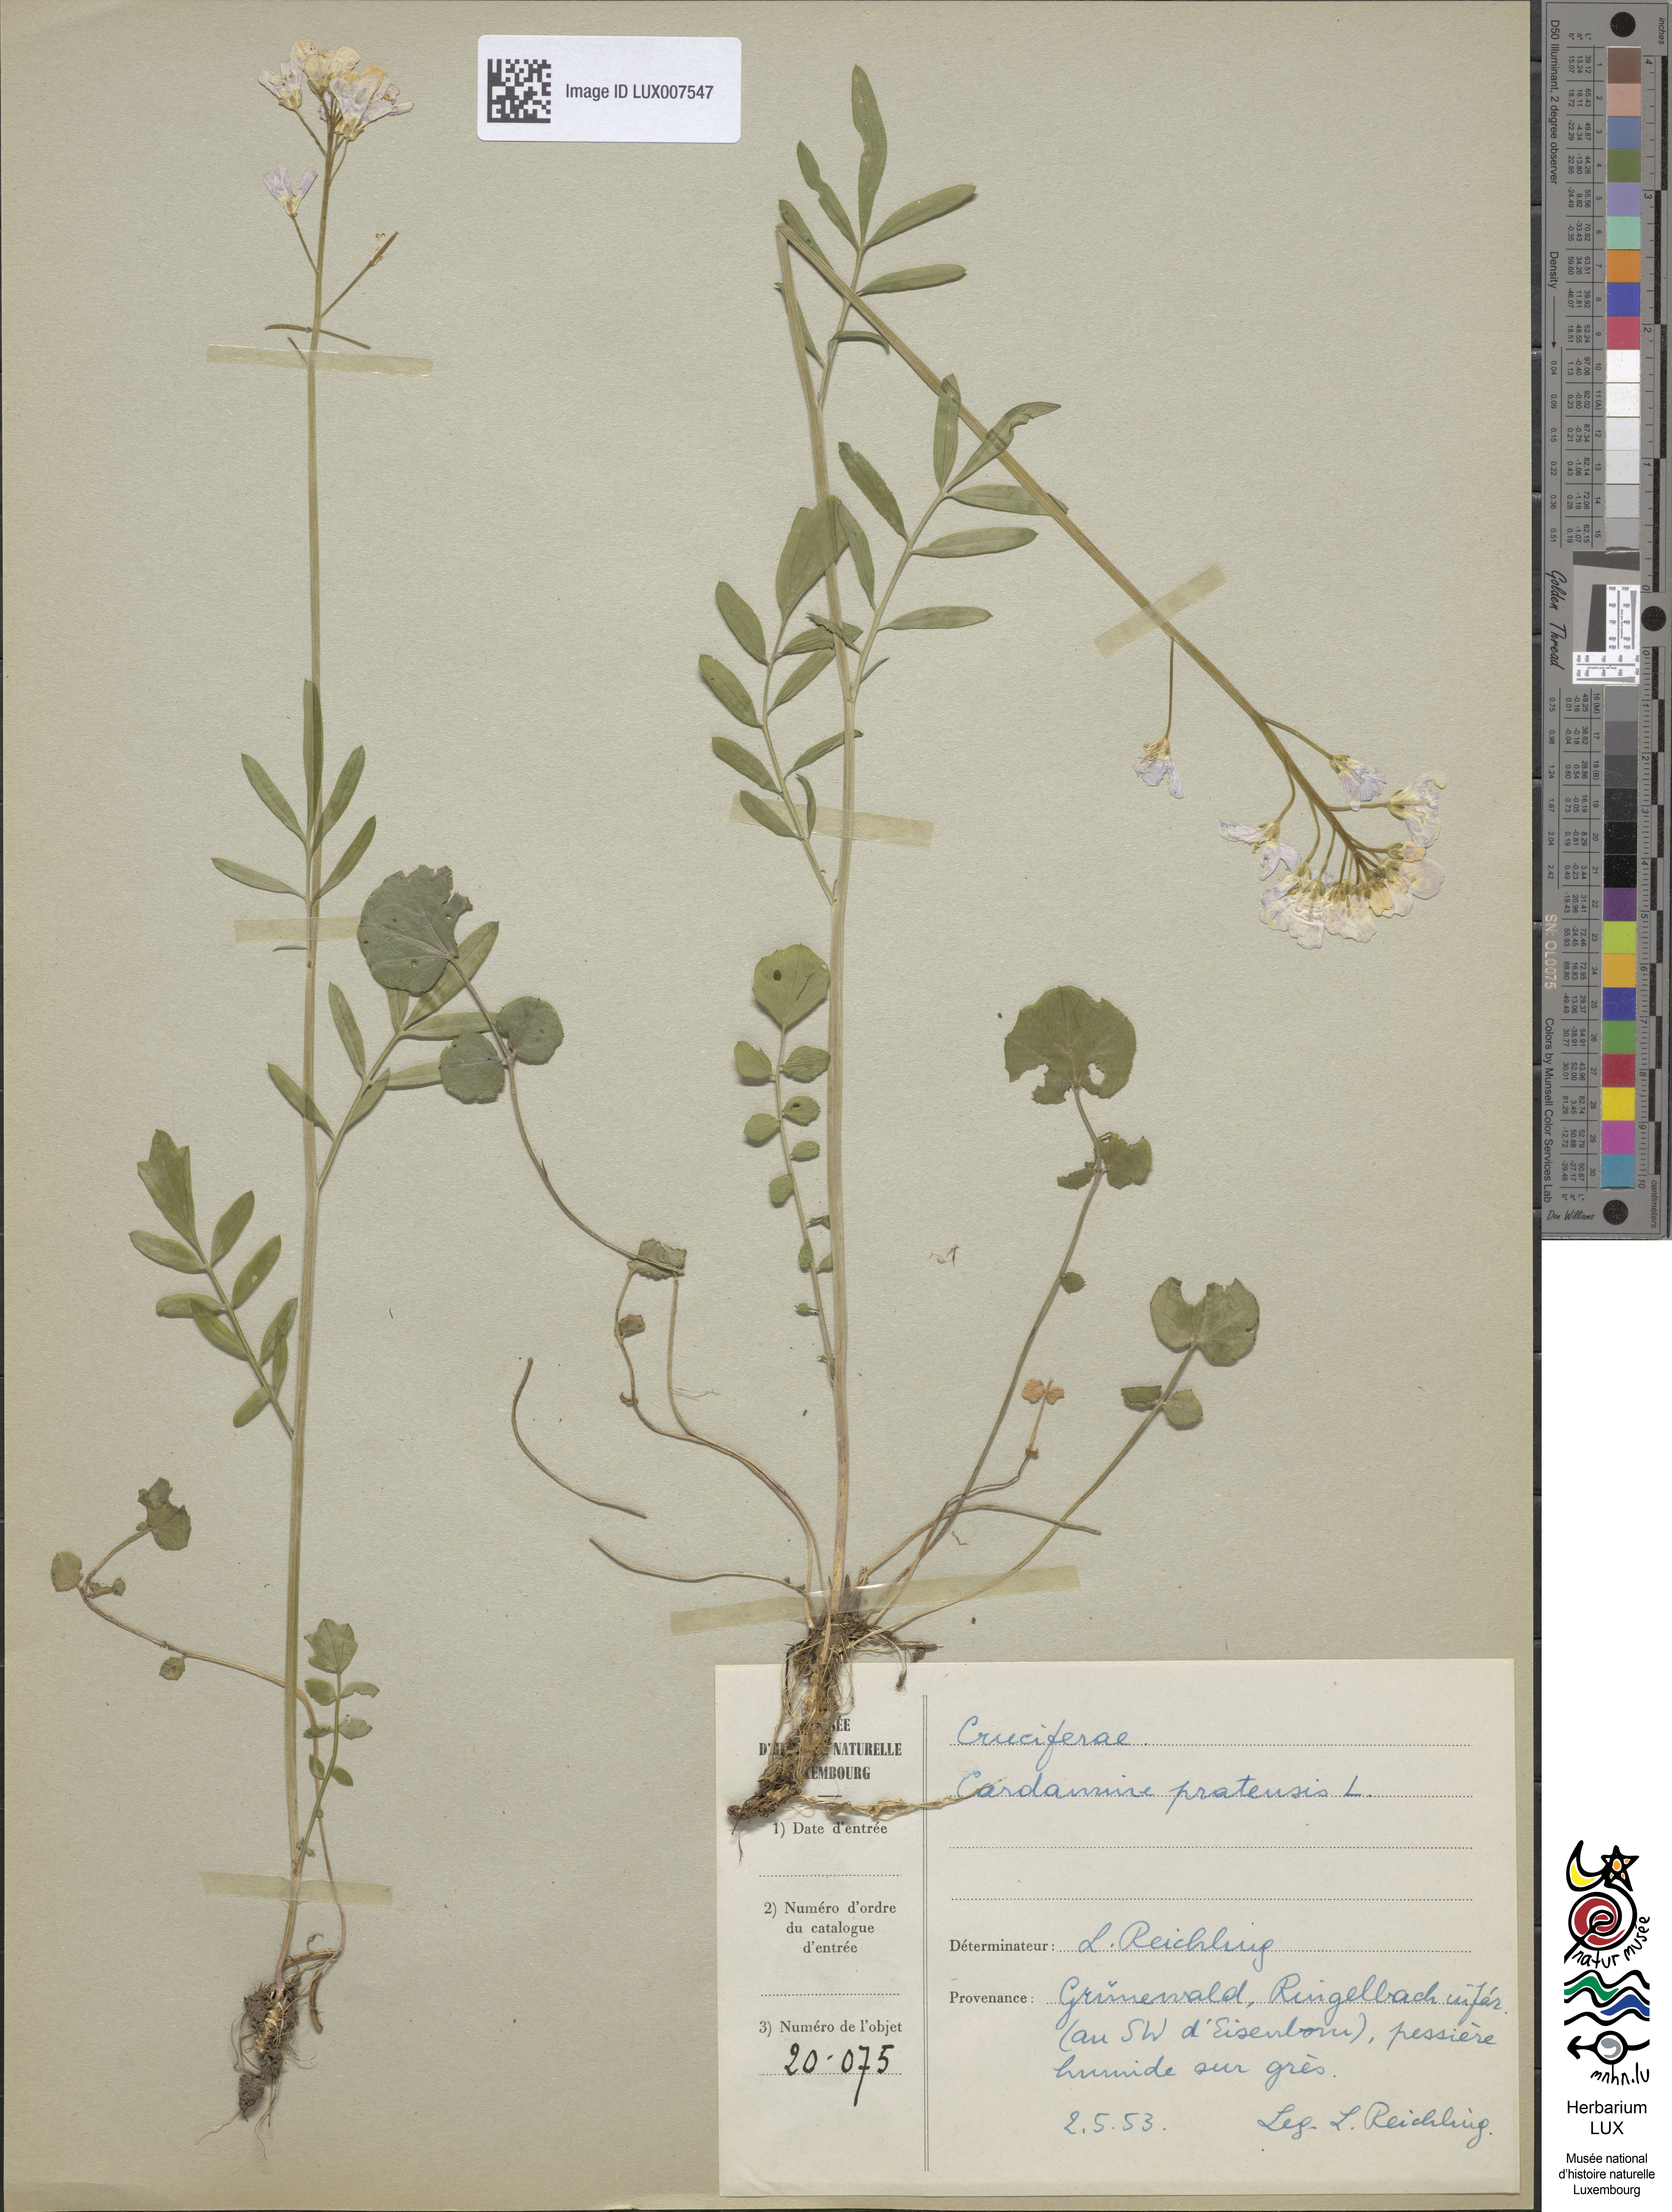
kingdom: Plantae
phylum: Tracheophyta
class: Magnoliopsida
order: Brassicales
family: Brassicaceae
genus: Cardamine
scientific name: Cardamine pratensis
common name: Cuckoo flower
